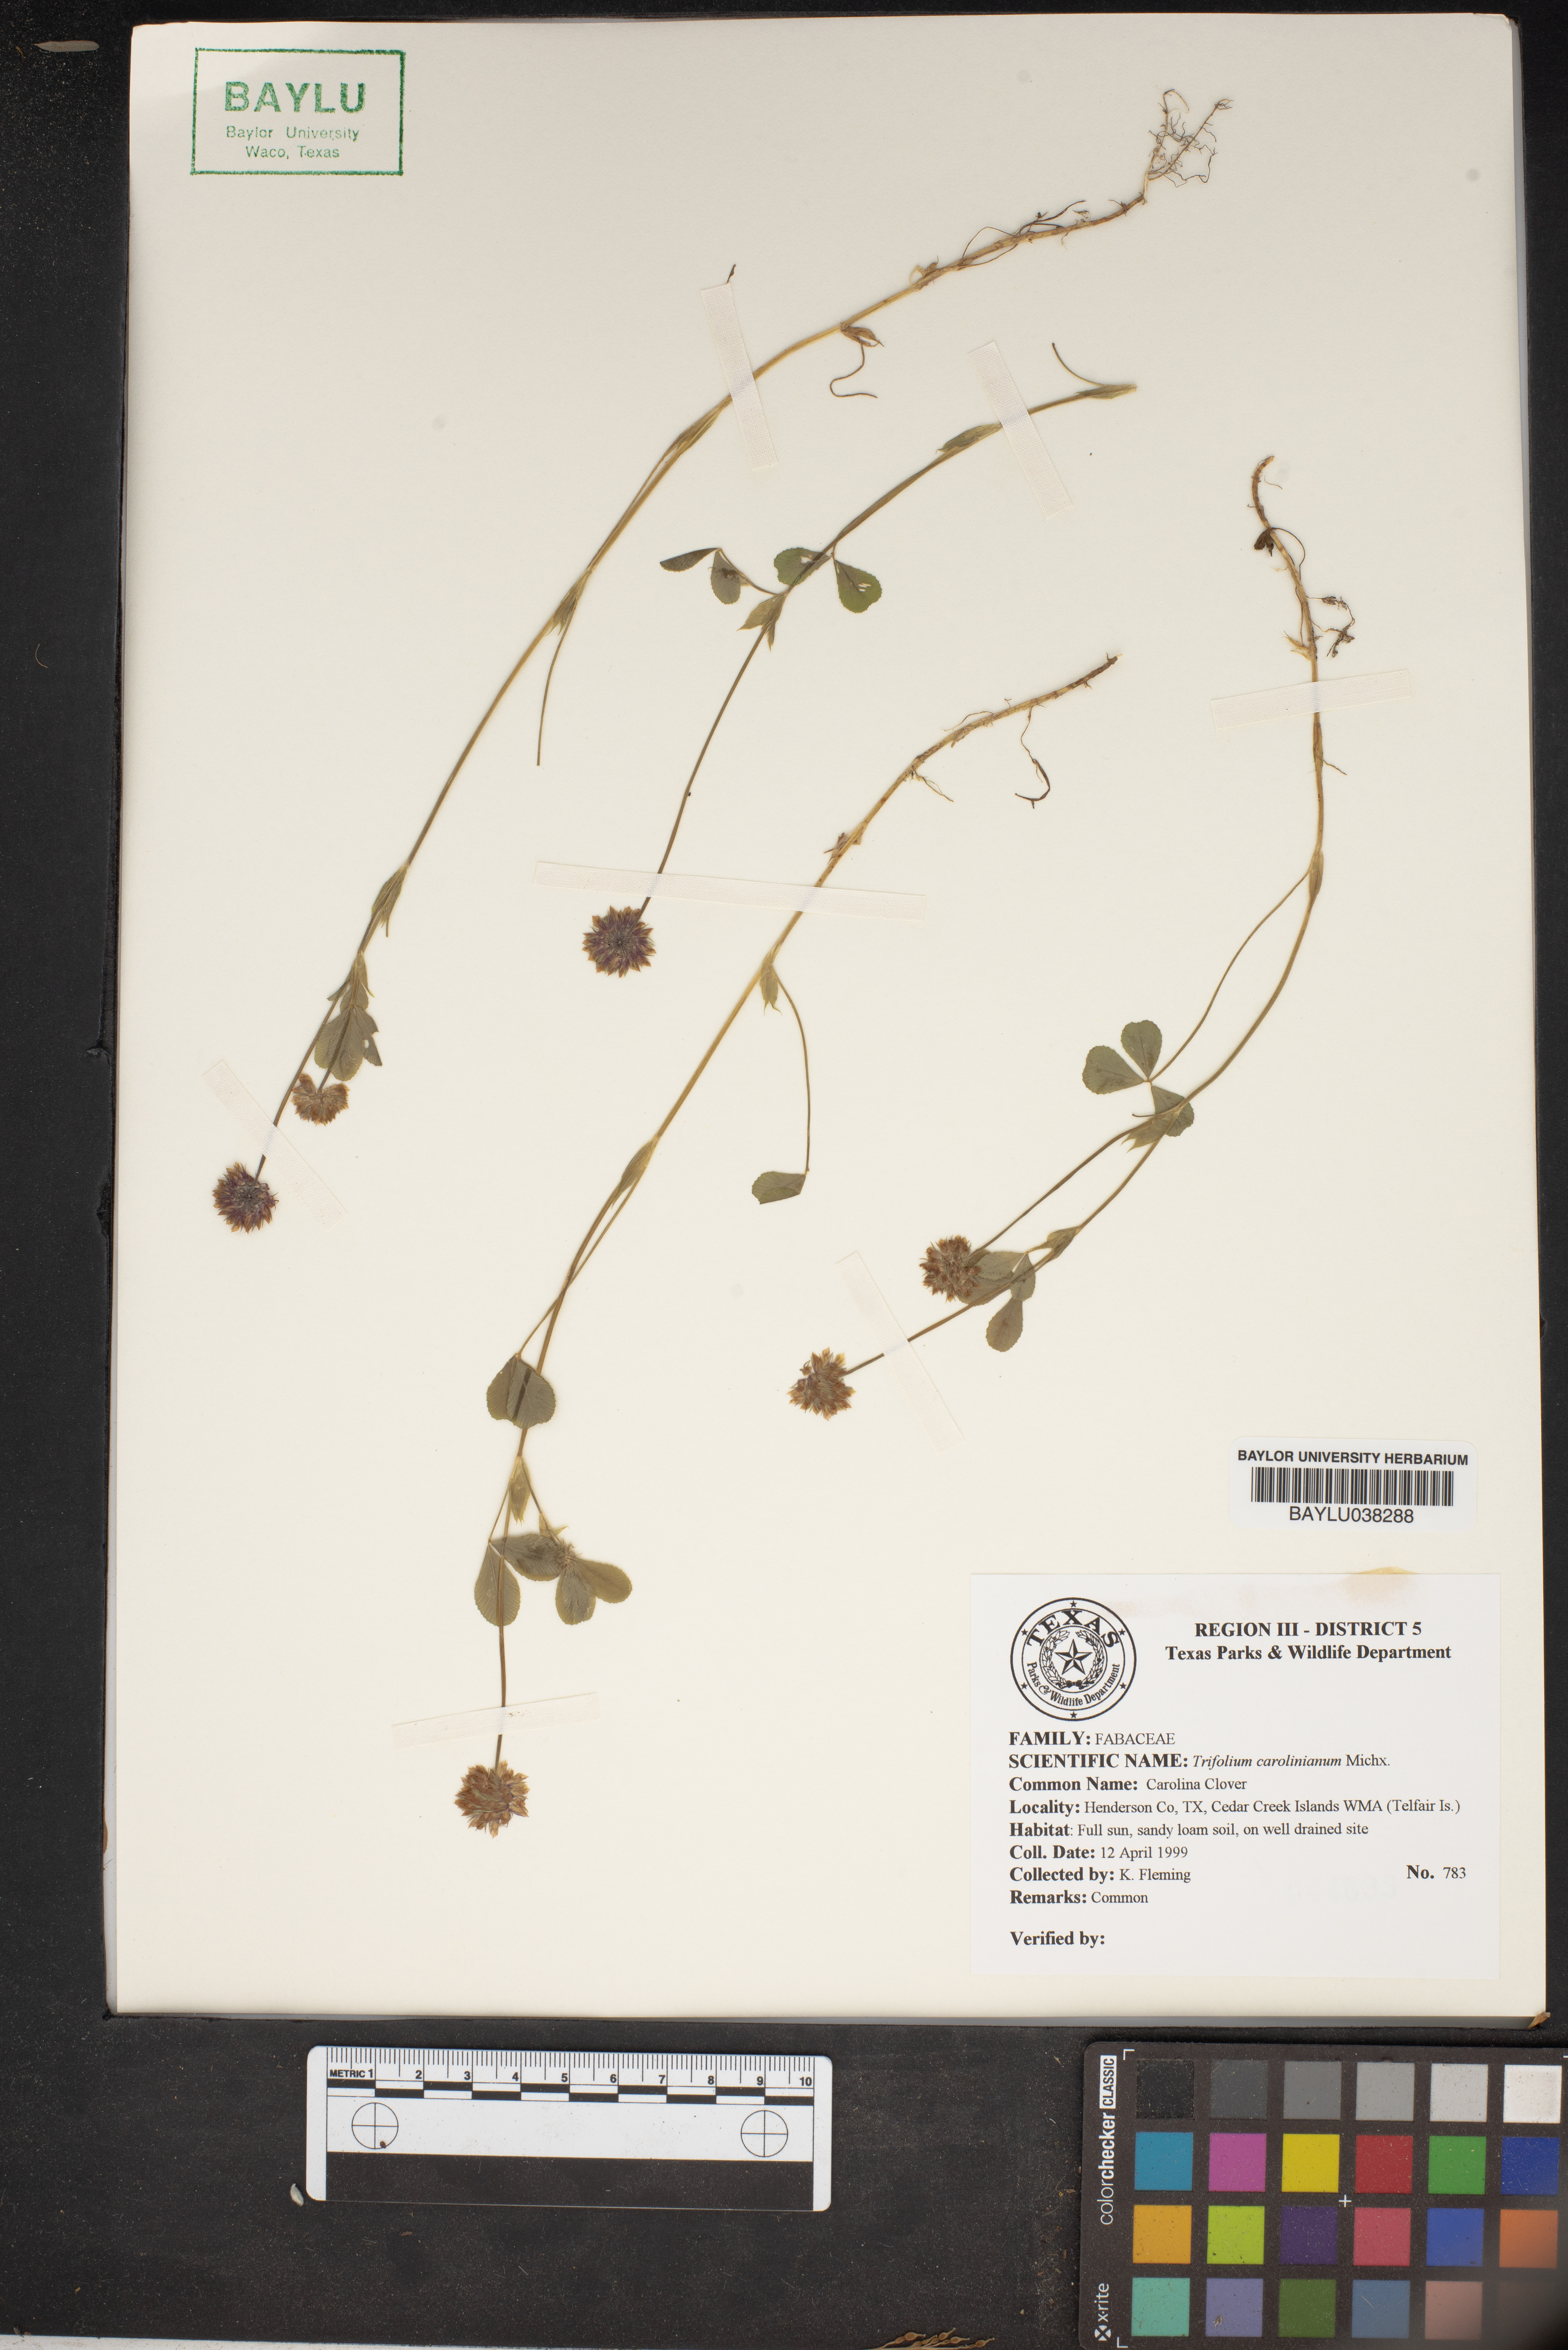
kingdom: Plantae
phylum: Tracheophyta
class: Magnoliopsida
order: Fabales
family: Fabaceae
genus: Trifolium
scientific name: Trifolium carolinianum
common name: Wild white clover
